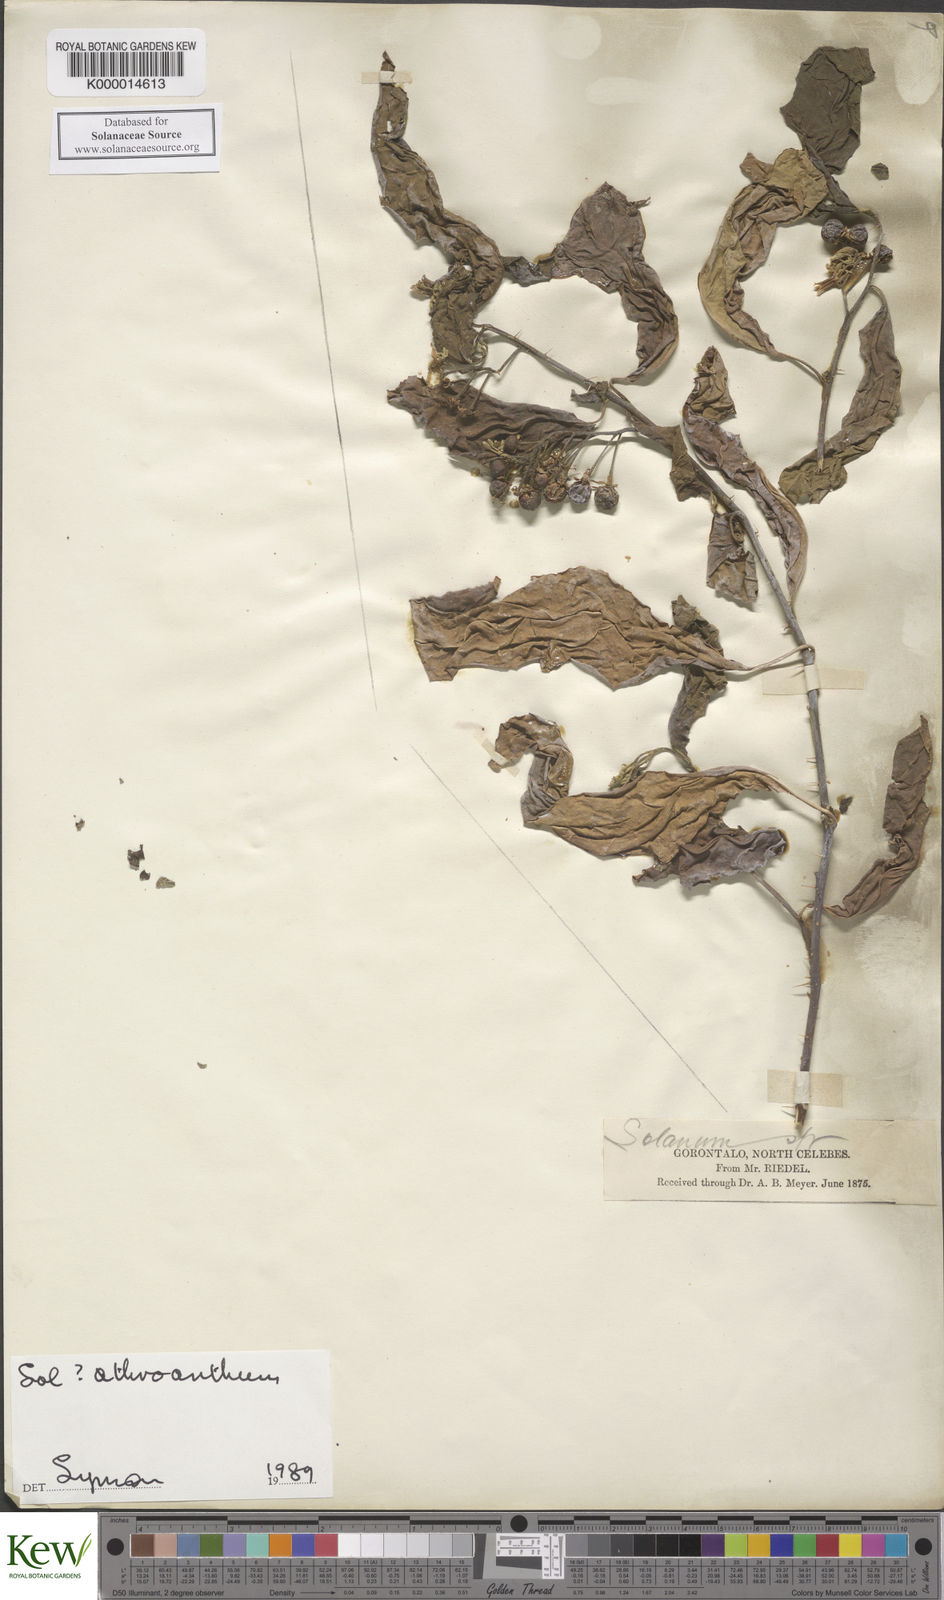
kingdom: Plantae
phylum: Tracheophyta
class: Magnoliopsida
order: Solanales
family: Solanaceae
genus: Solanum
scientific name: Solanum graciliflorum
